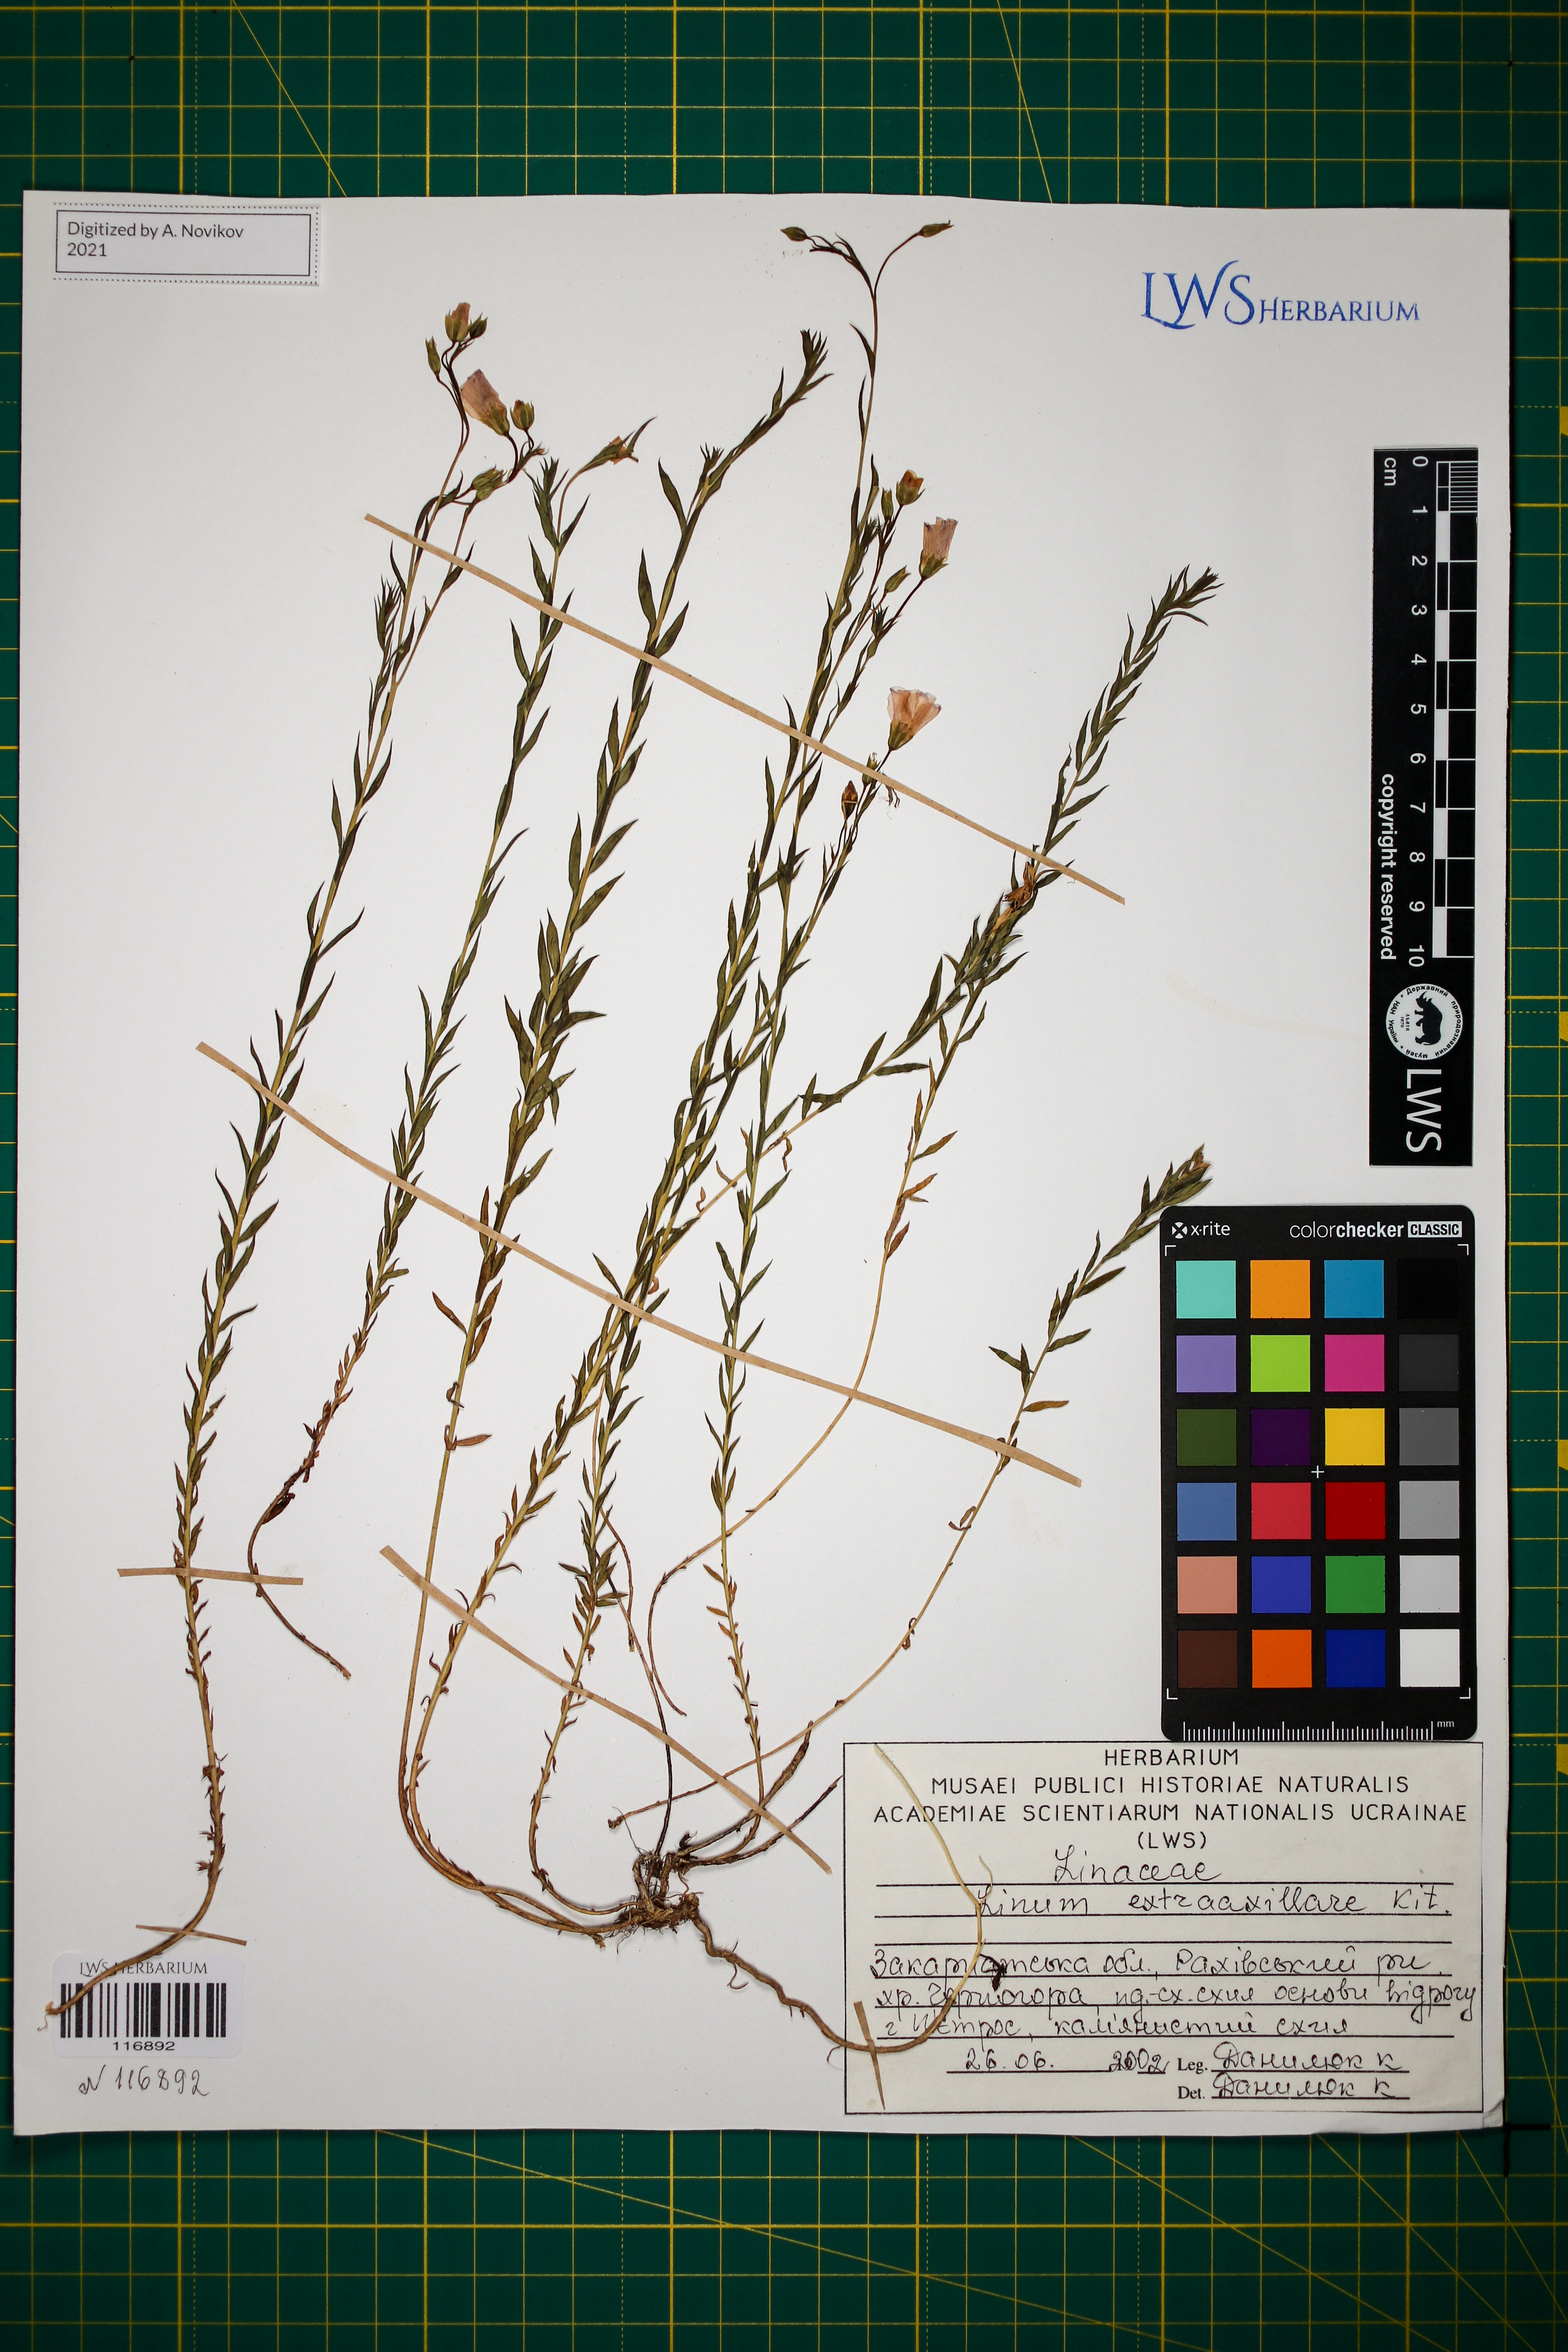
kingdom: Plantae
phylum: Tracheophyta
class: Magnoliopsida
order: Malpighiales
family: Linaceae
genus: Linum
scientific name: Linum perenne
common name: Blue flax
